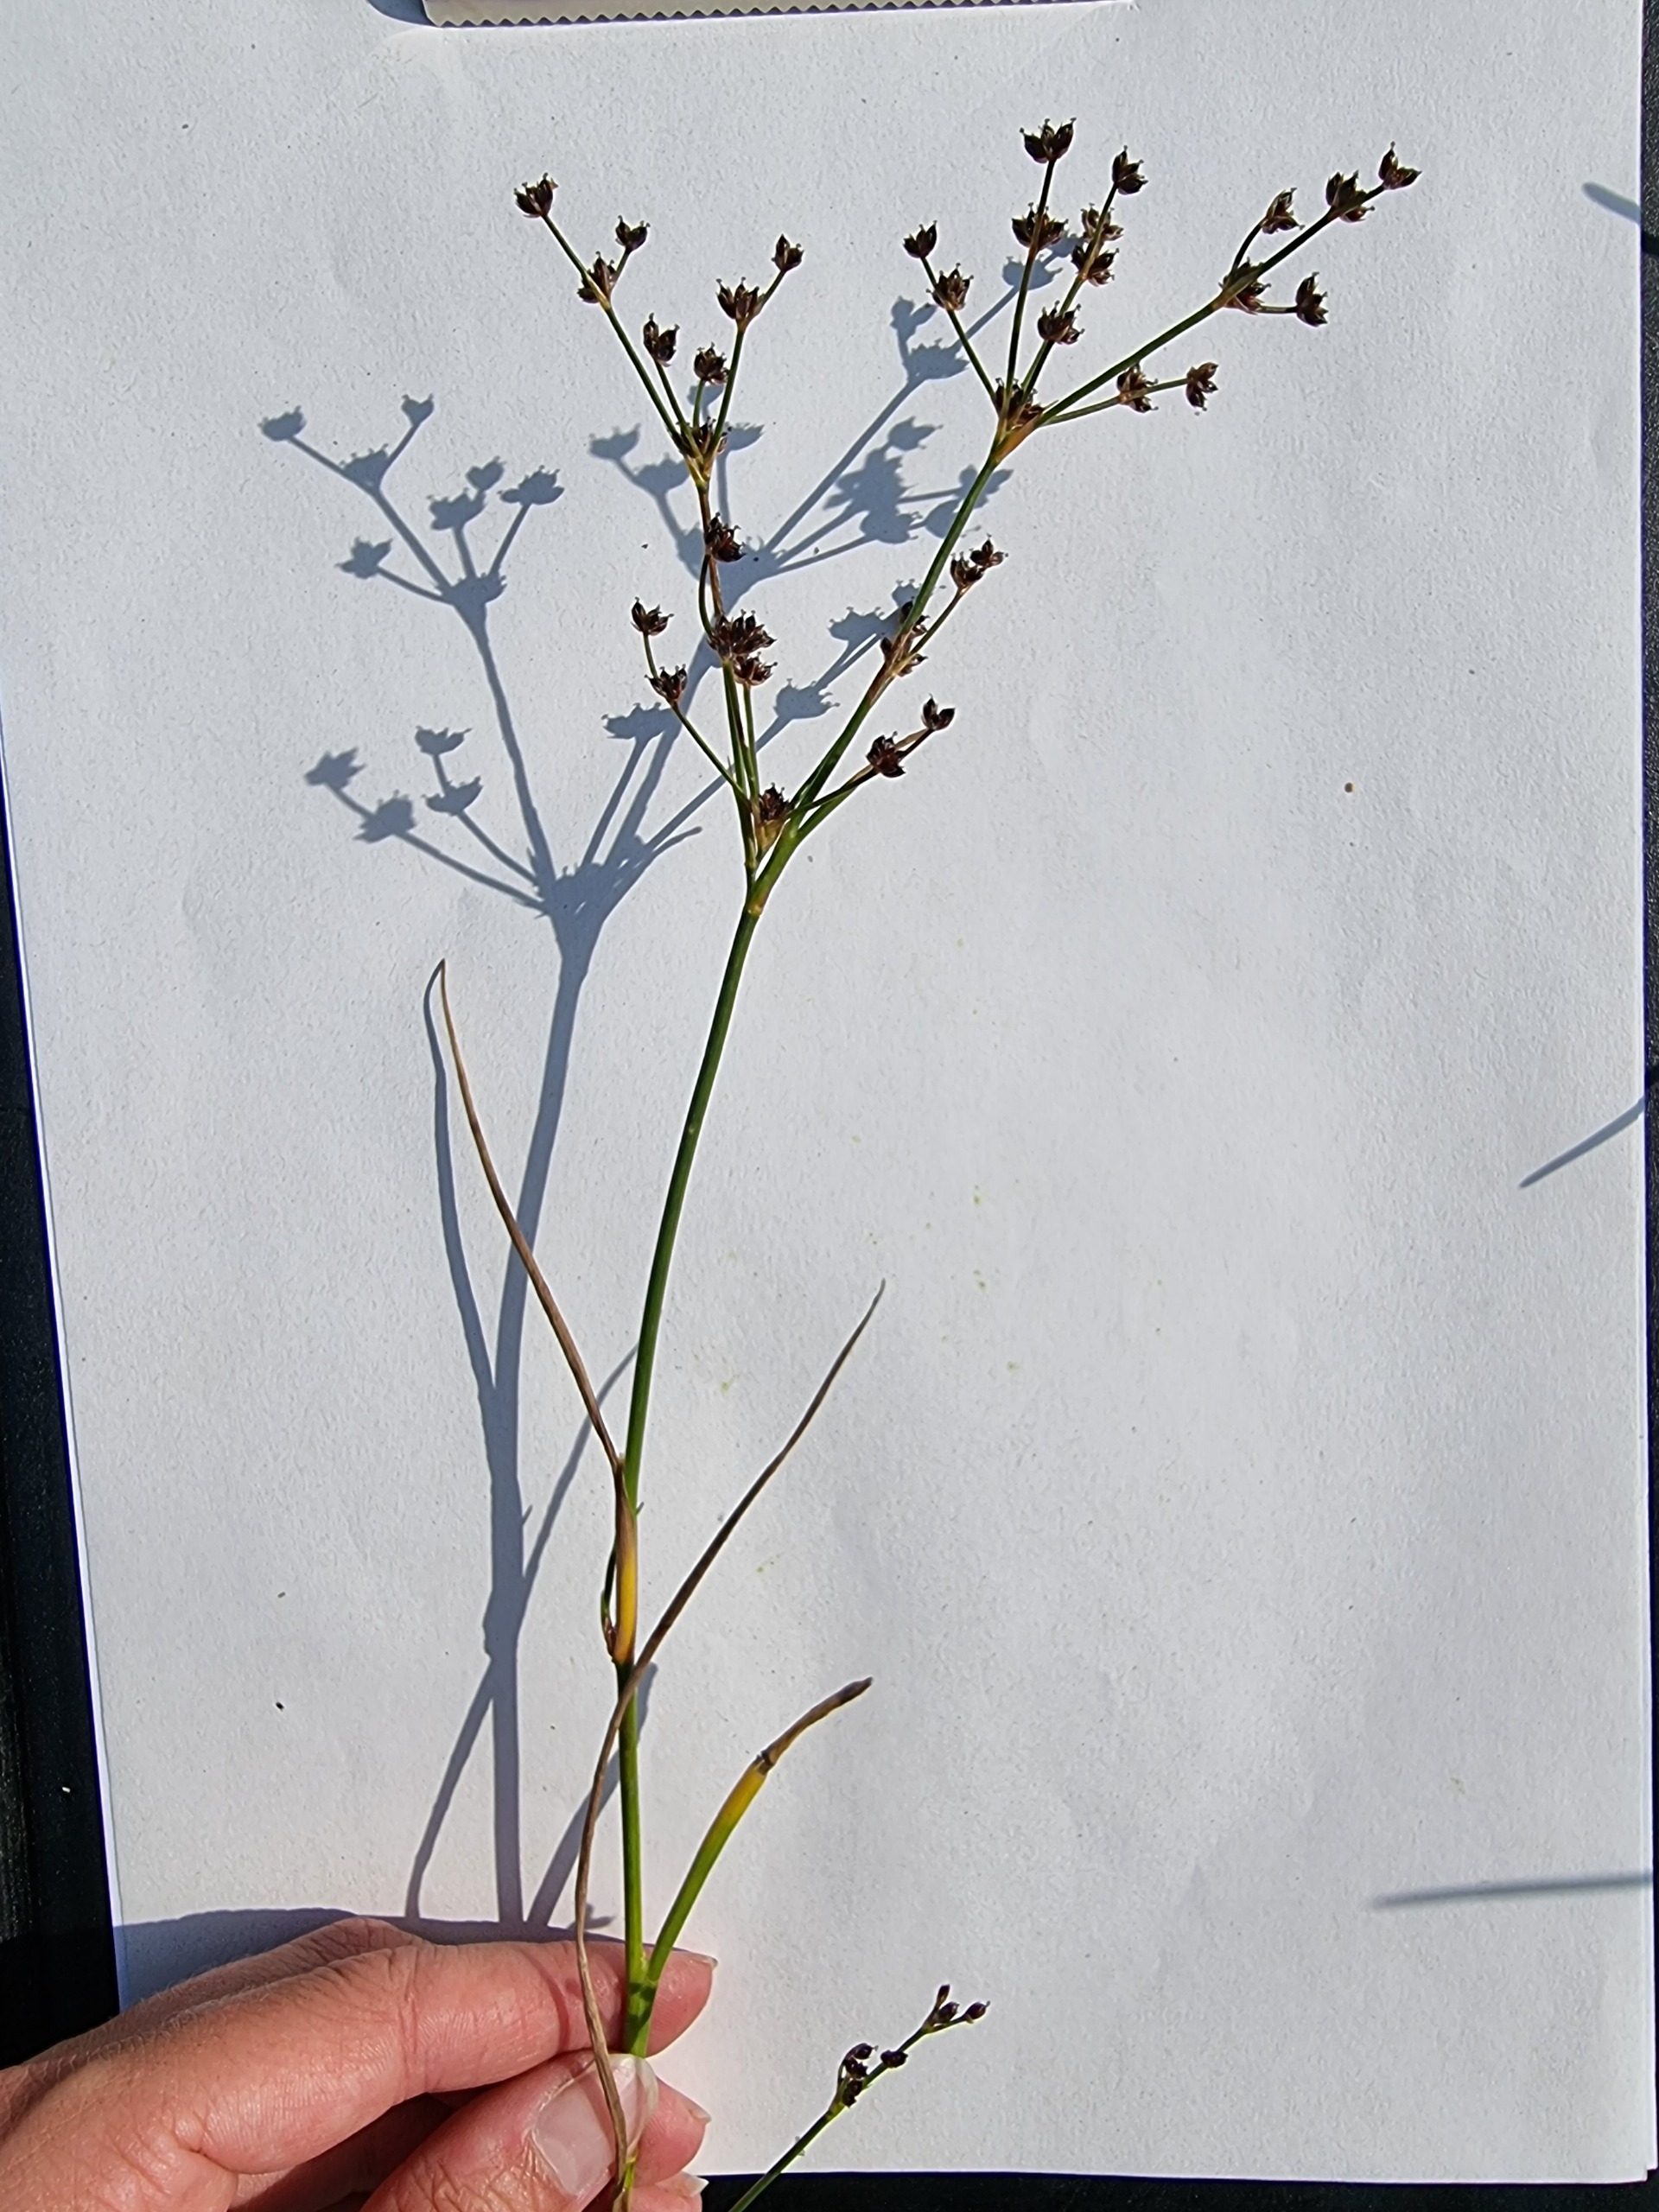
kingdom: Plantae
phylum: Tracheophyta
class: Liliopsida
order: Poales
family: Juncaceae
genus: Juncus
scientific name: Juncus articulatus
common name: Glanskapslet siv
